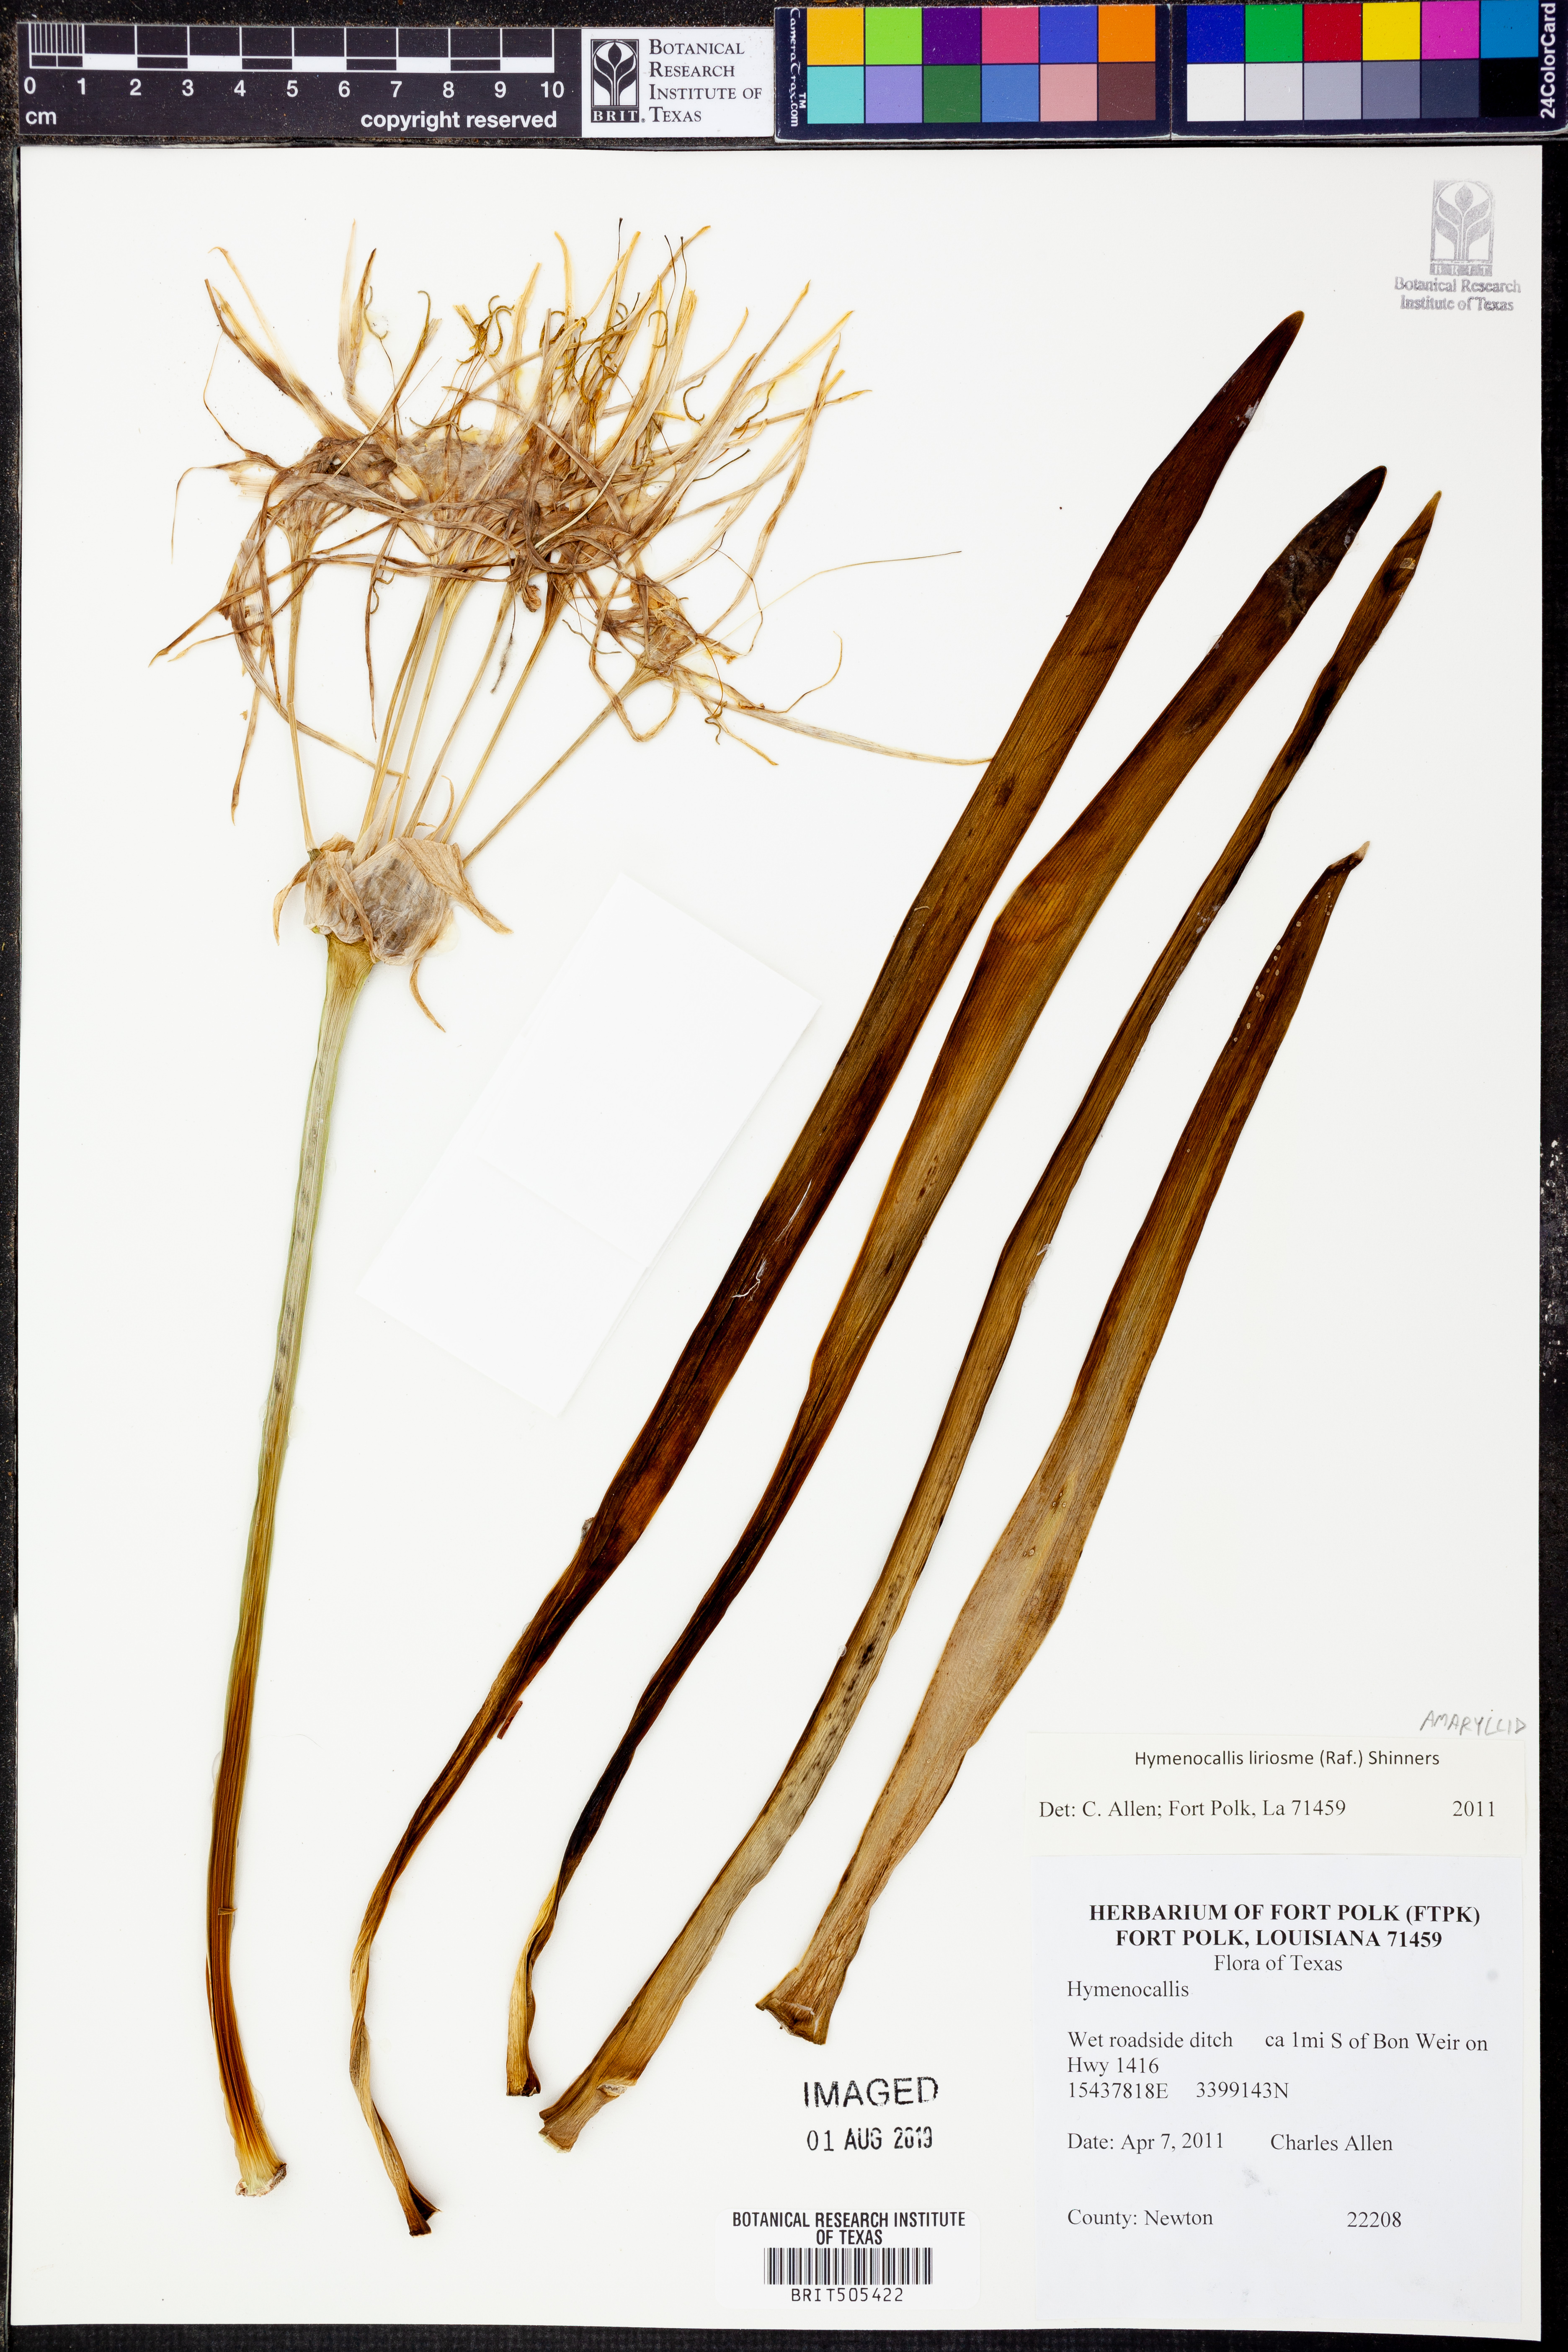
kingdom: Plantae
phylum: Tracheophyta
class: Liliopsida
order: Asparagales
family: Amaryllidaceae
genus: Hymenocallis
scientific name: Hymenocallis liriosme
